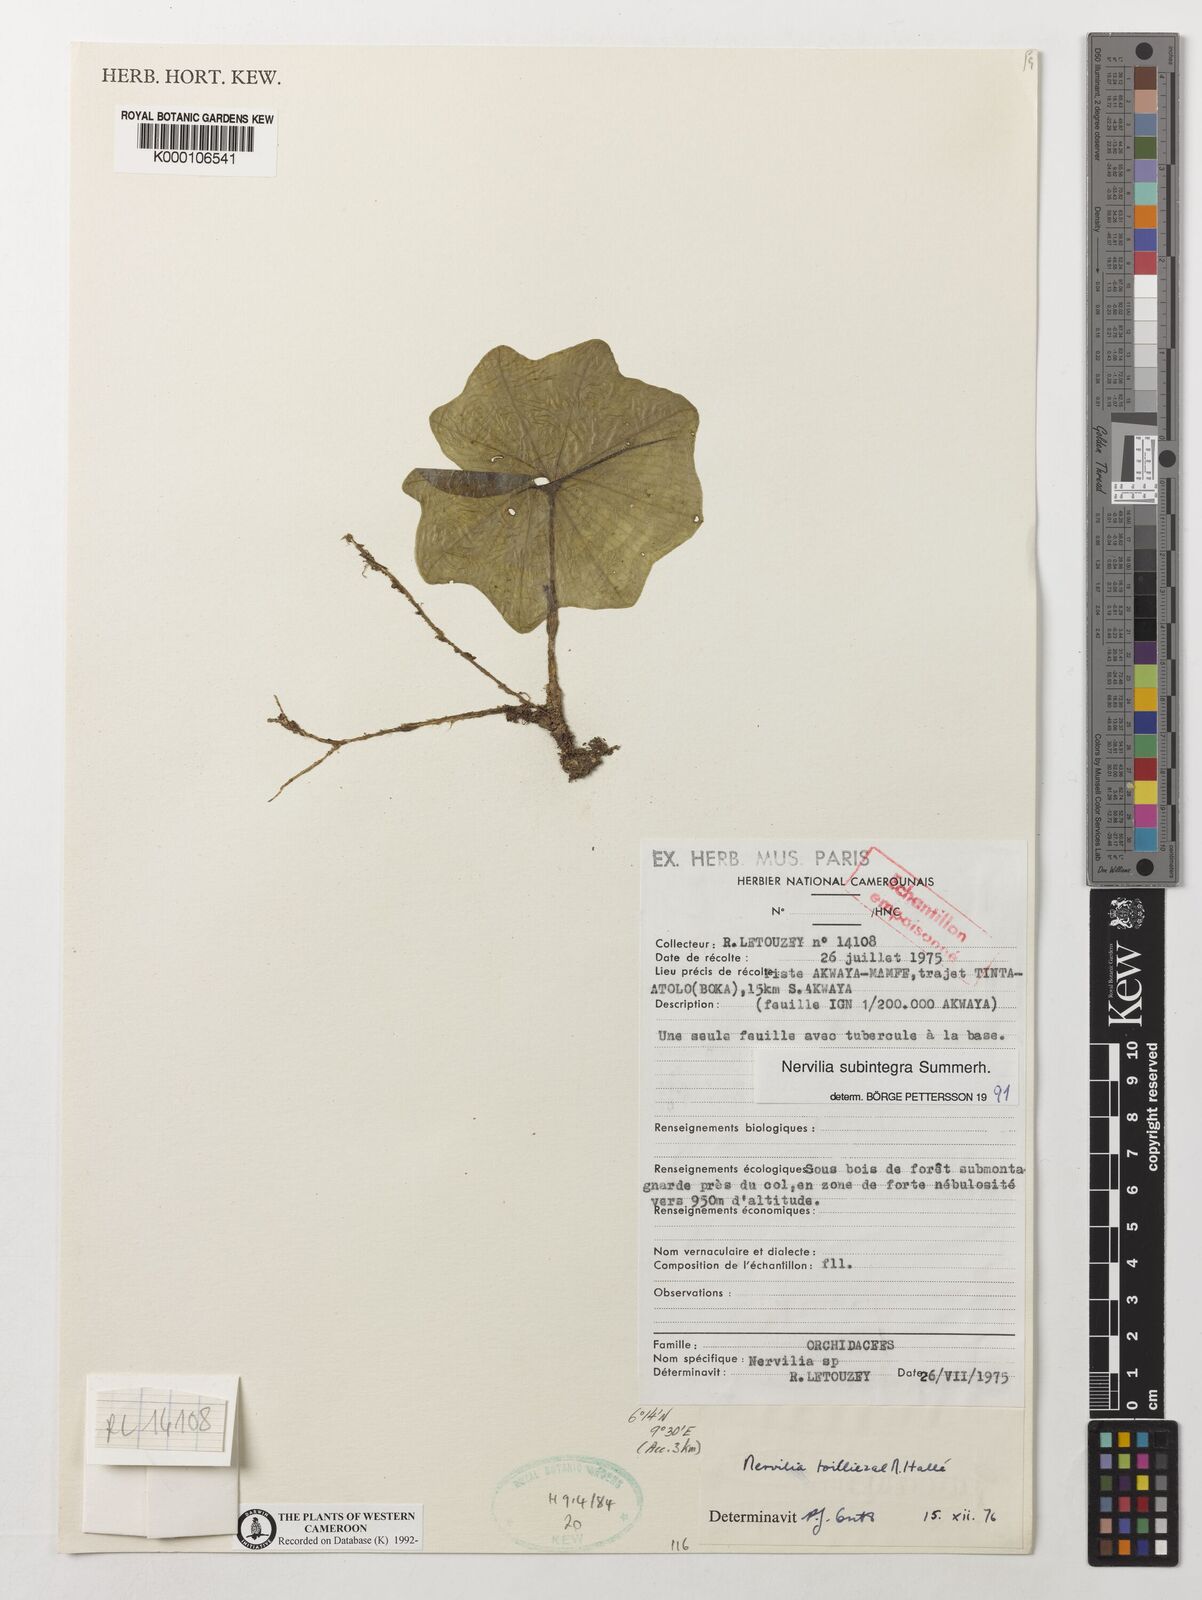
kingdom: Plantae
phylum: Tracheophyta
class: Liliopsida
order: Asparagales
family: Orchidaceae
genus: Nervilia
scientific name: Nervilia subintegra
